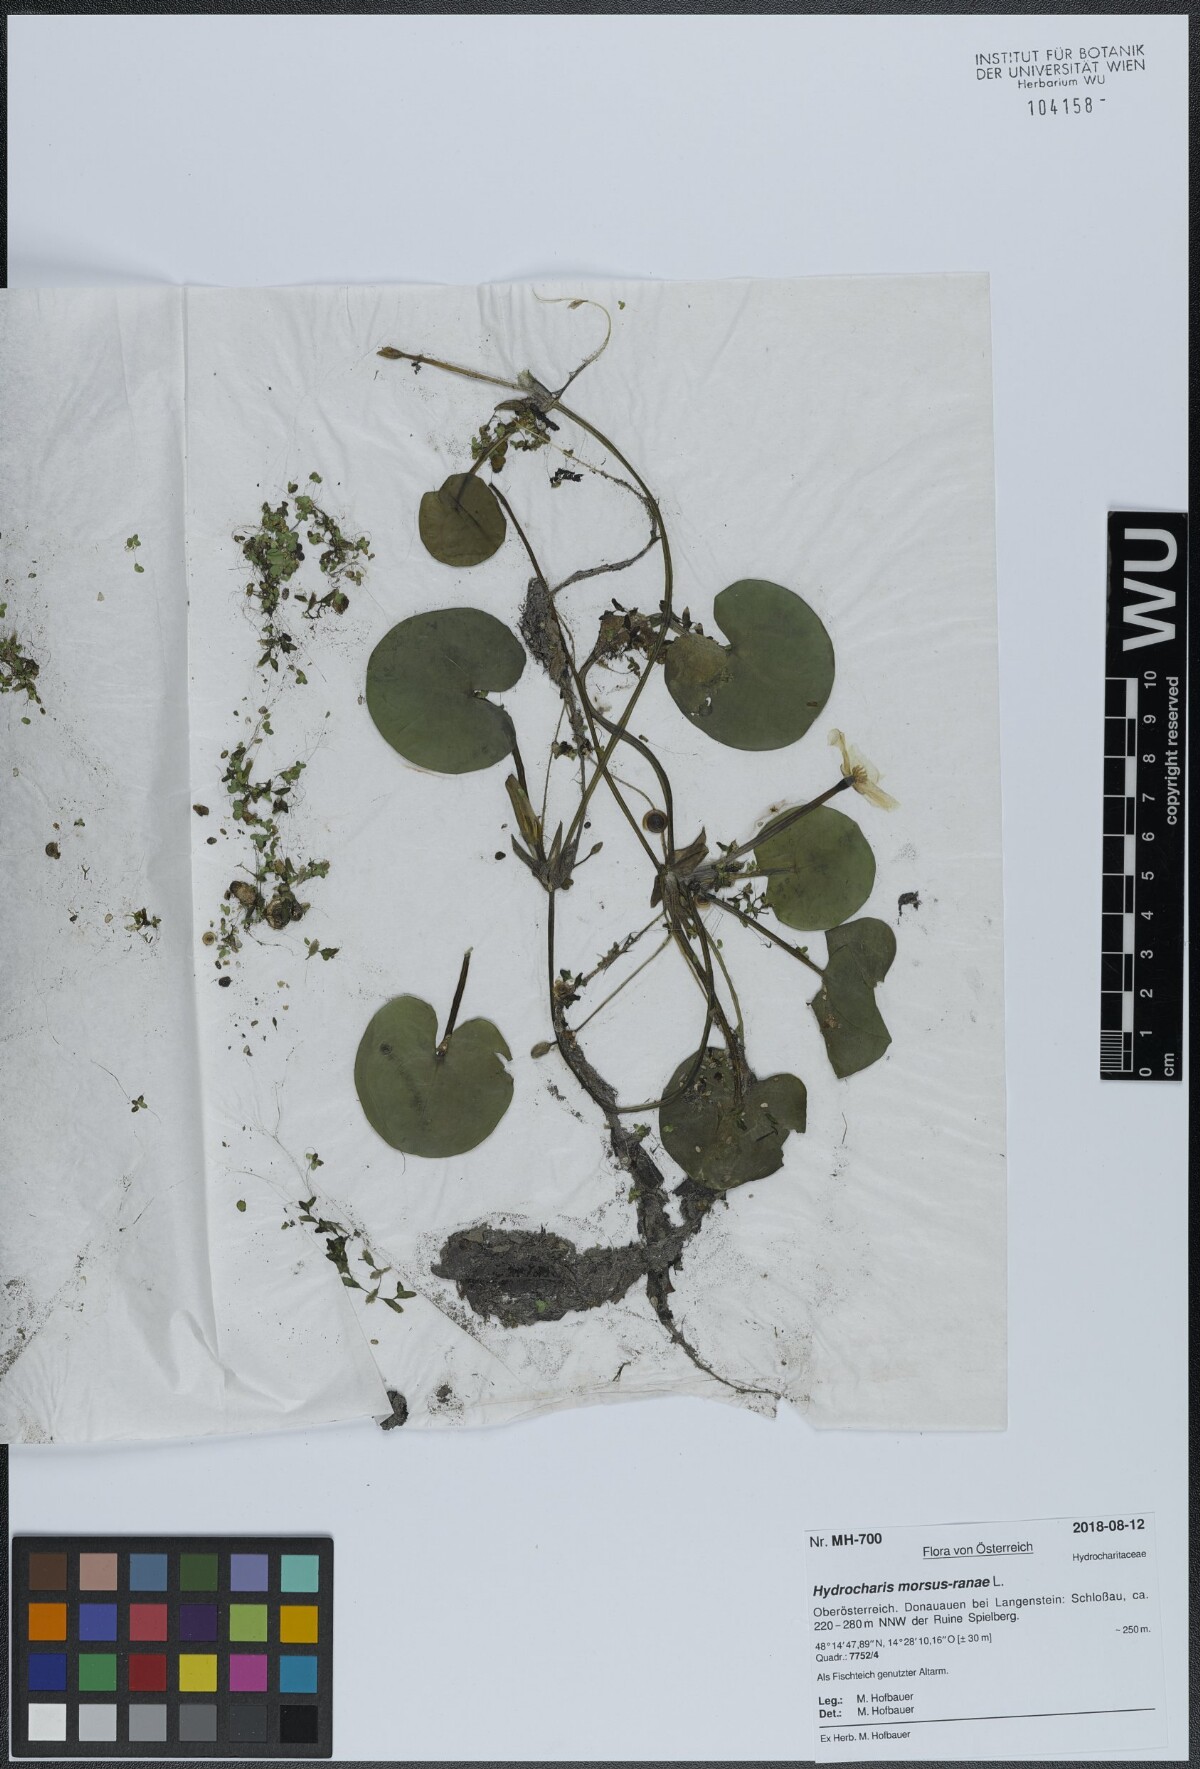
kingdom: Plantae
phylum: Tracheophyta
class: Liliopsida
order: Alismatales
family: Hydrocharitaceae
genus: Hydrocharis
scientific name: Hydrocharis morsus-ranae
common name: Frogbit
